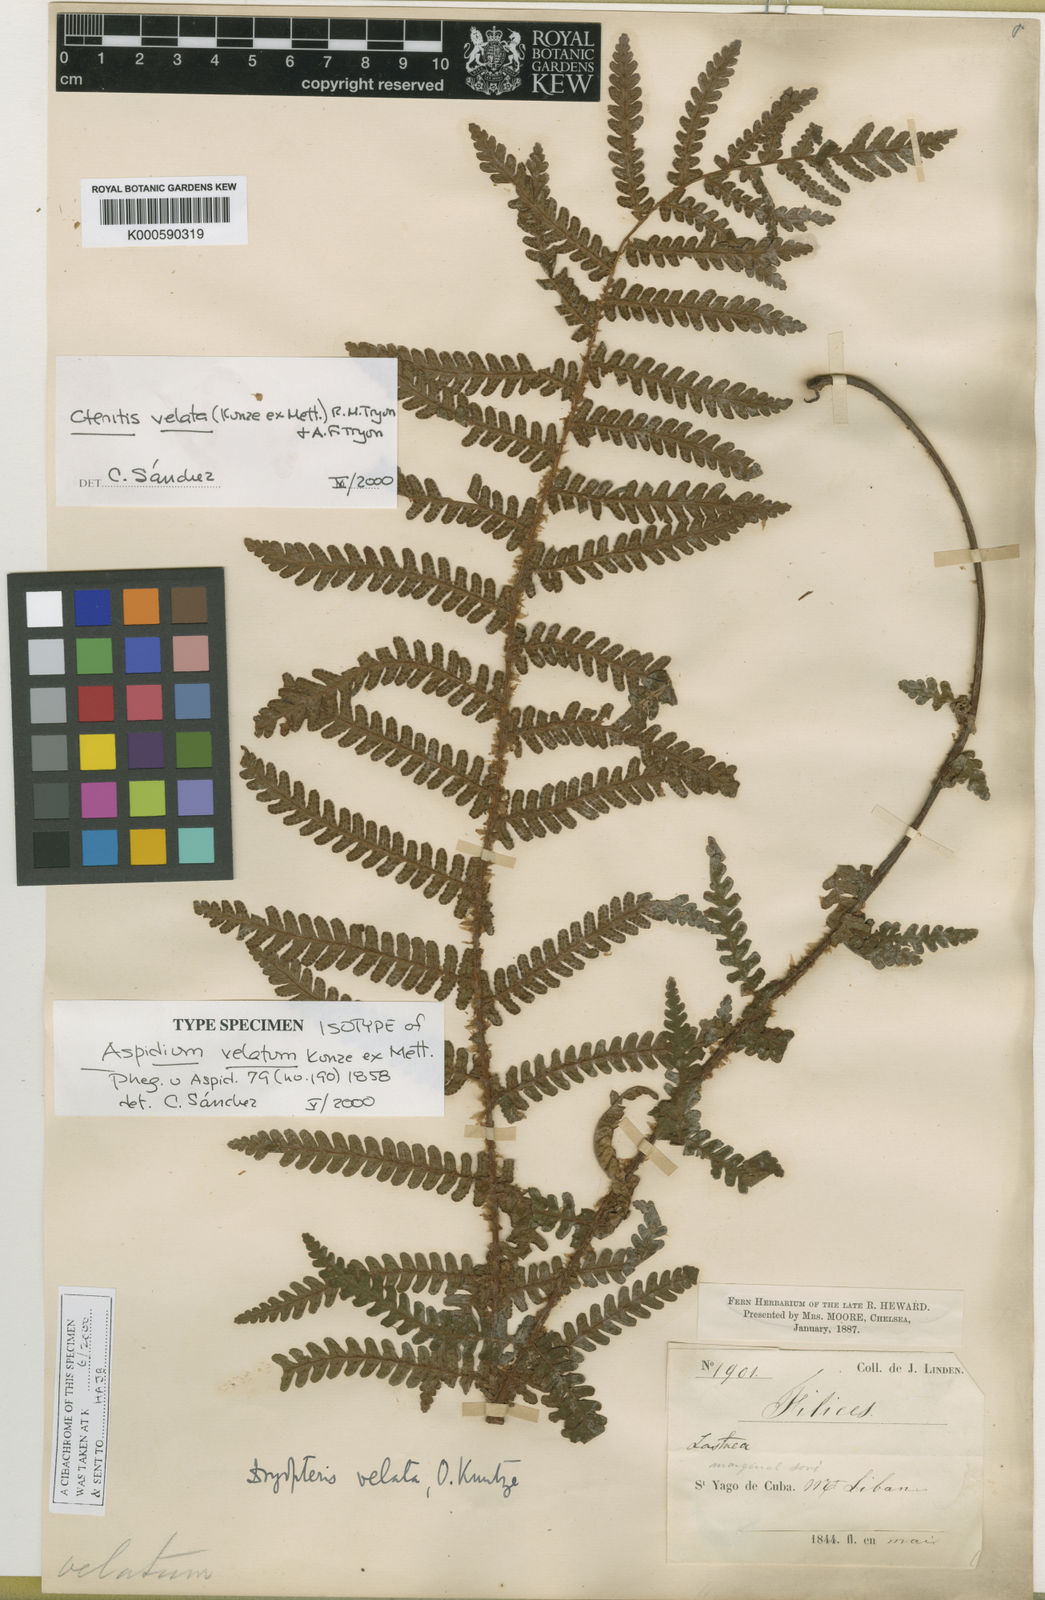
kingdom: Plantae
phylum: Tracheophyta
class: Polypodiopsida
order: Polypodiales
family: Dryopteridaceae
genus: Ctenitis
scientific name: Ctenitis velata
